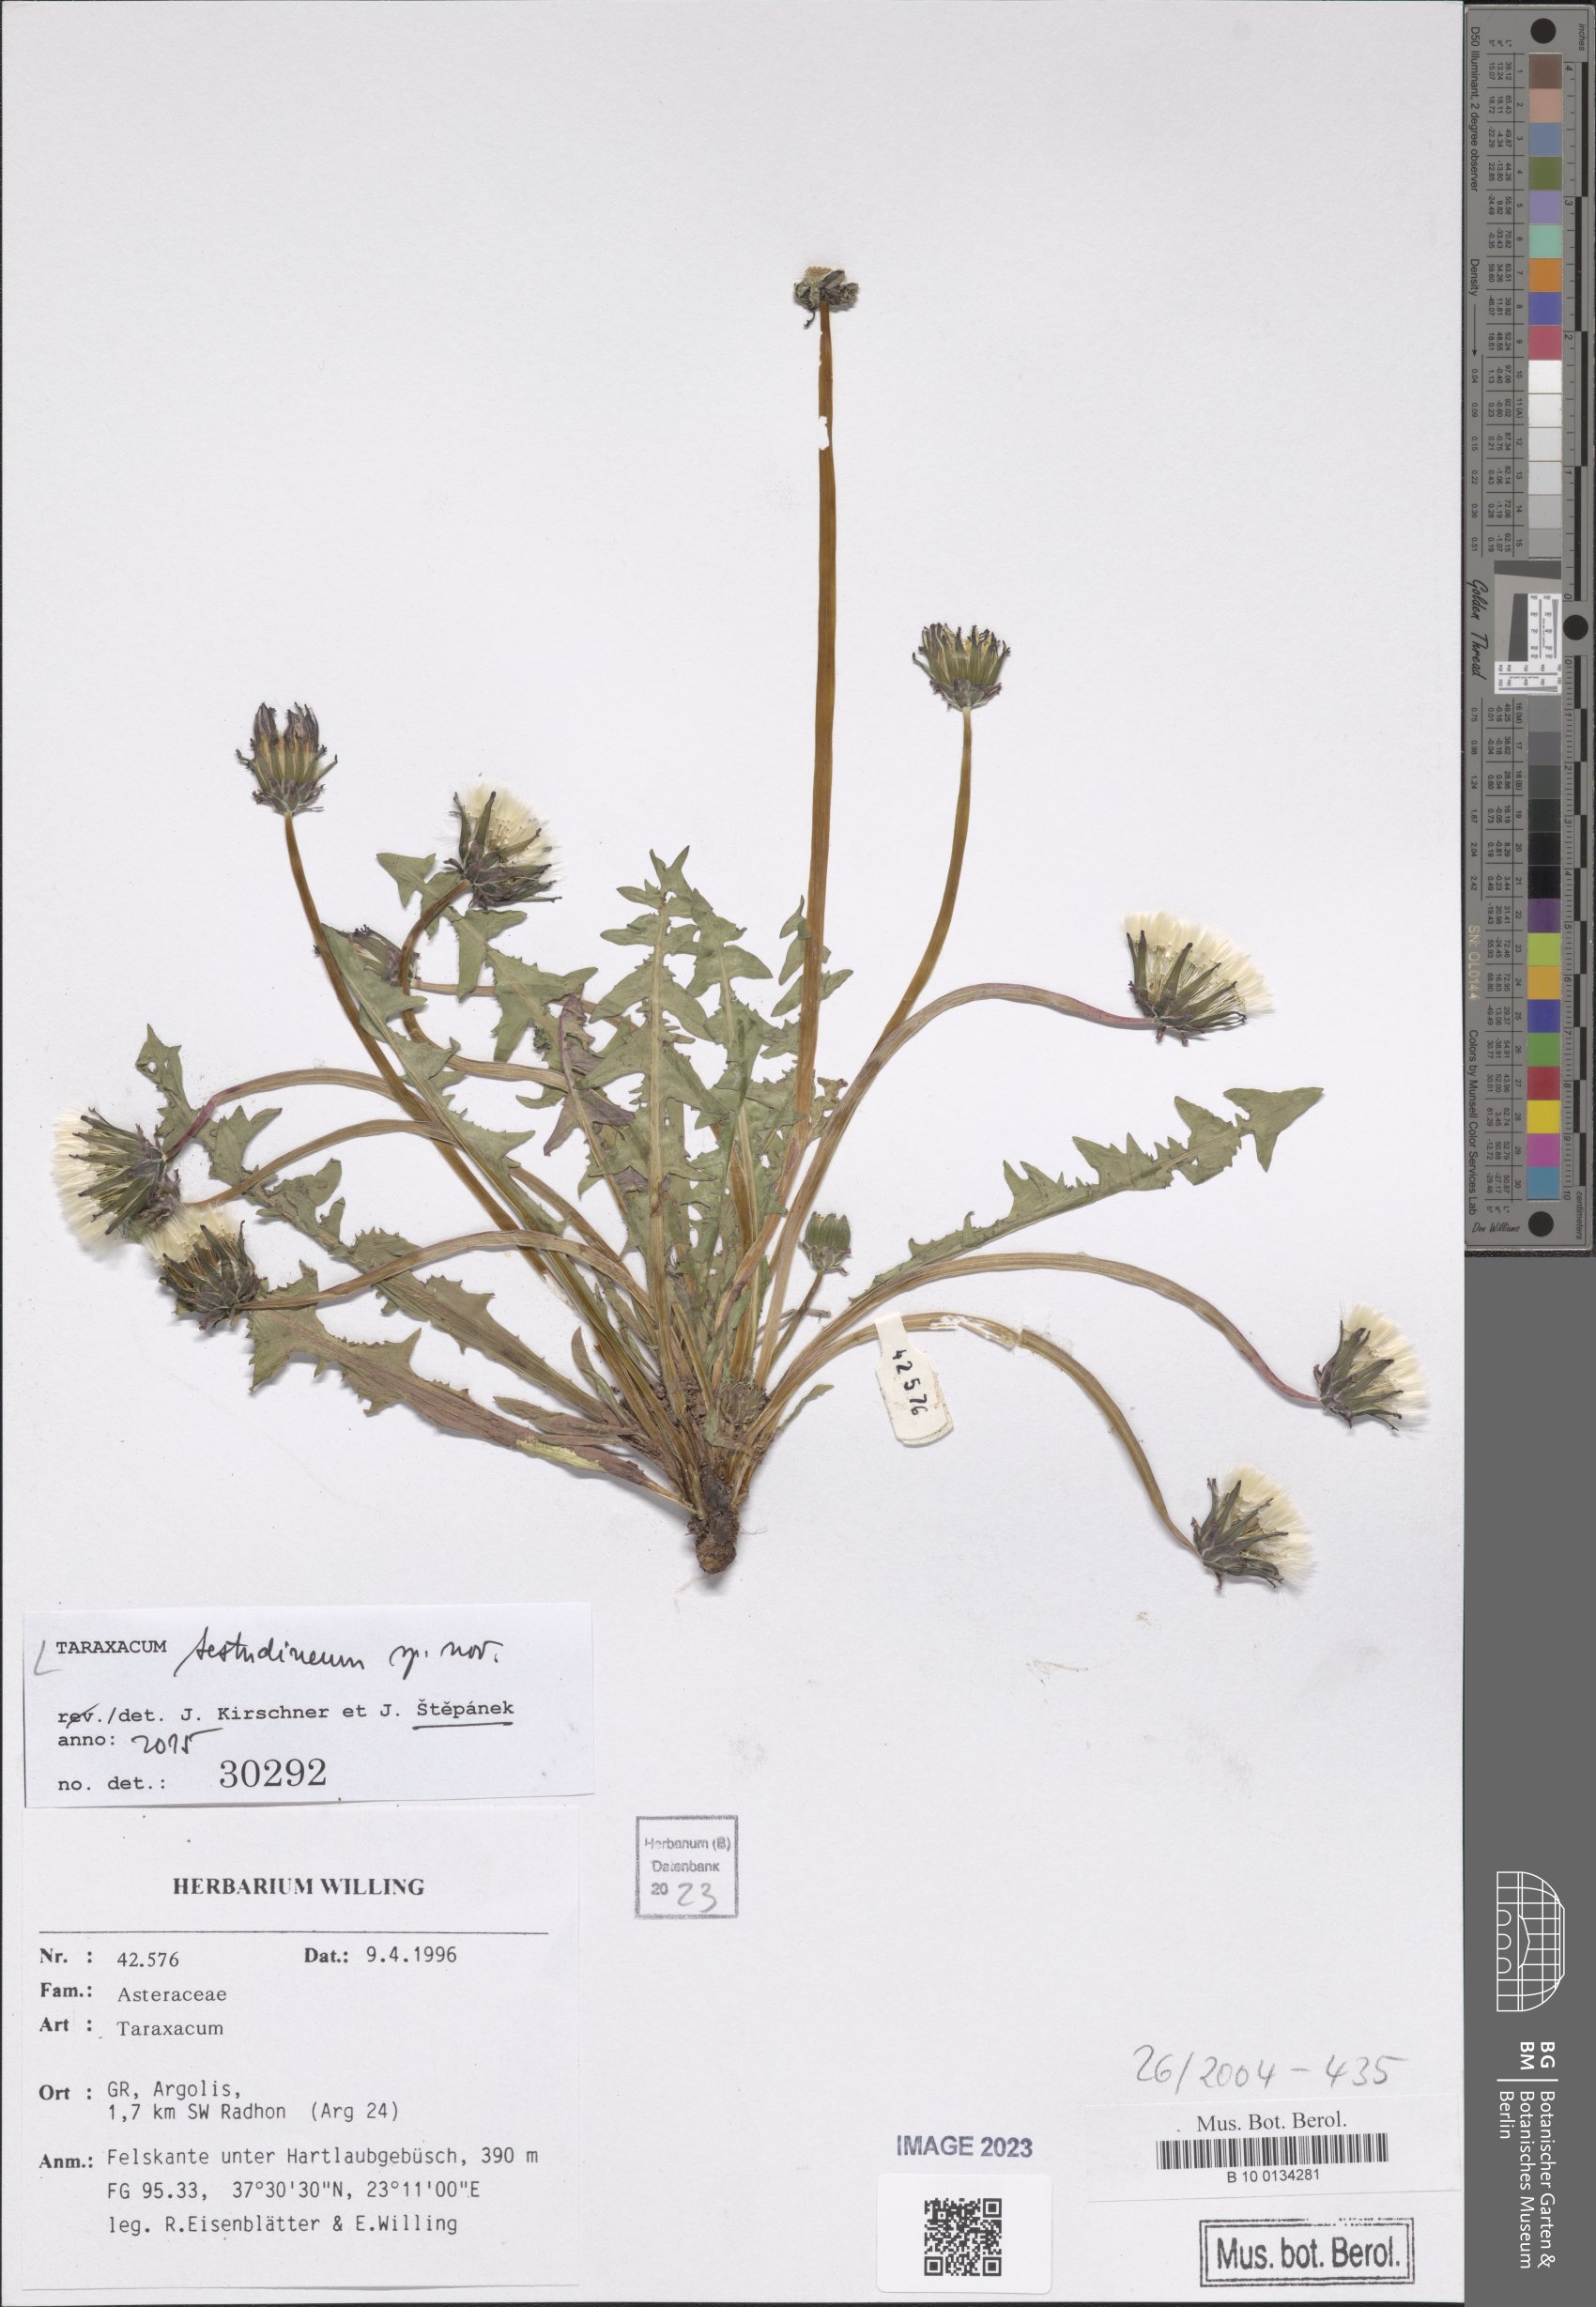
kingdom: Plantae
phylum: Tracheophyta
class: Magnoliopsida
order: Asterales
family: Asteraceae
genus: Taraxacum
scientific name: Taraxacum
